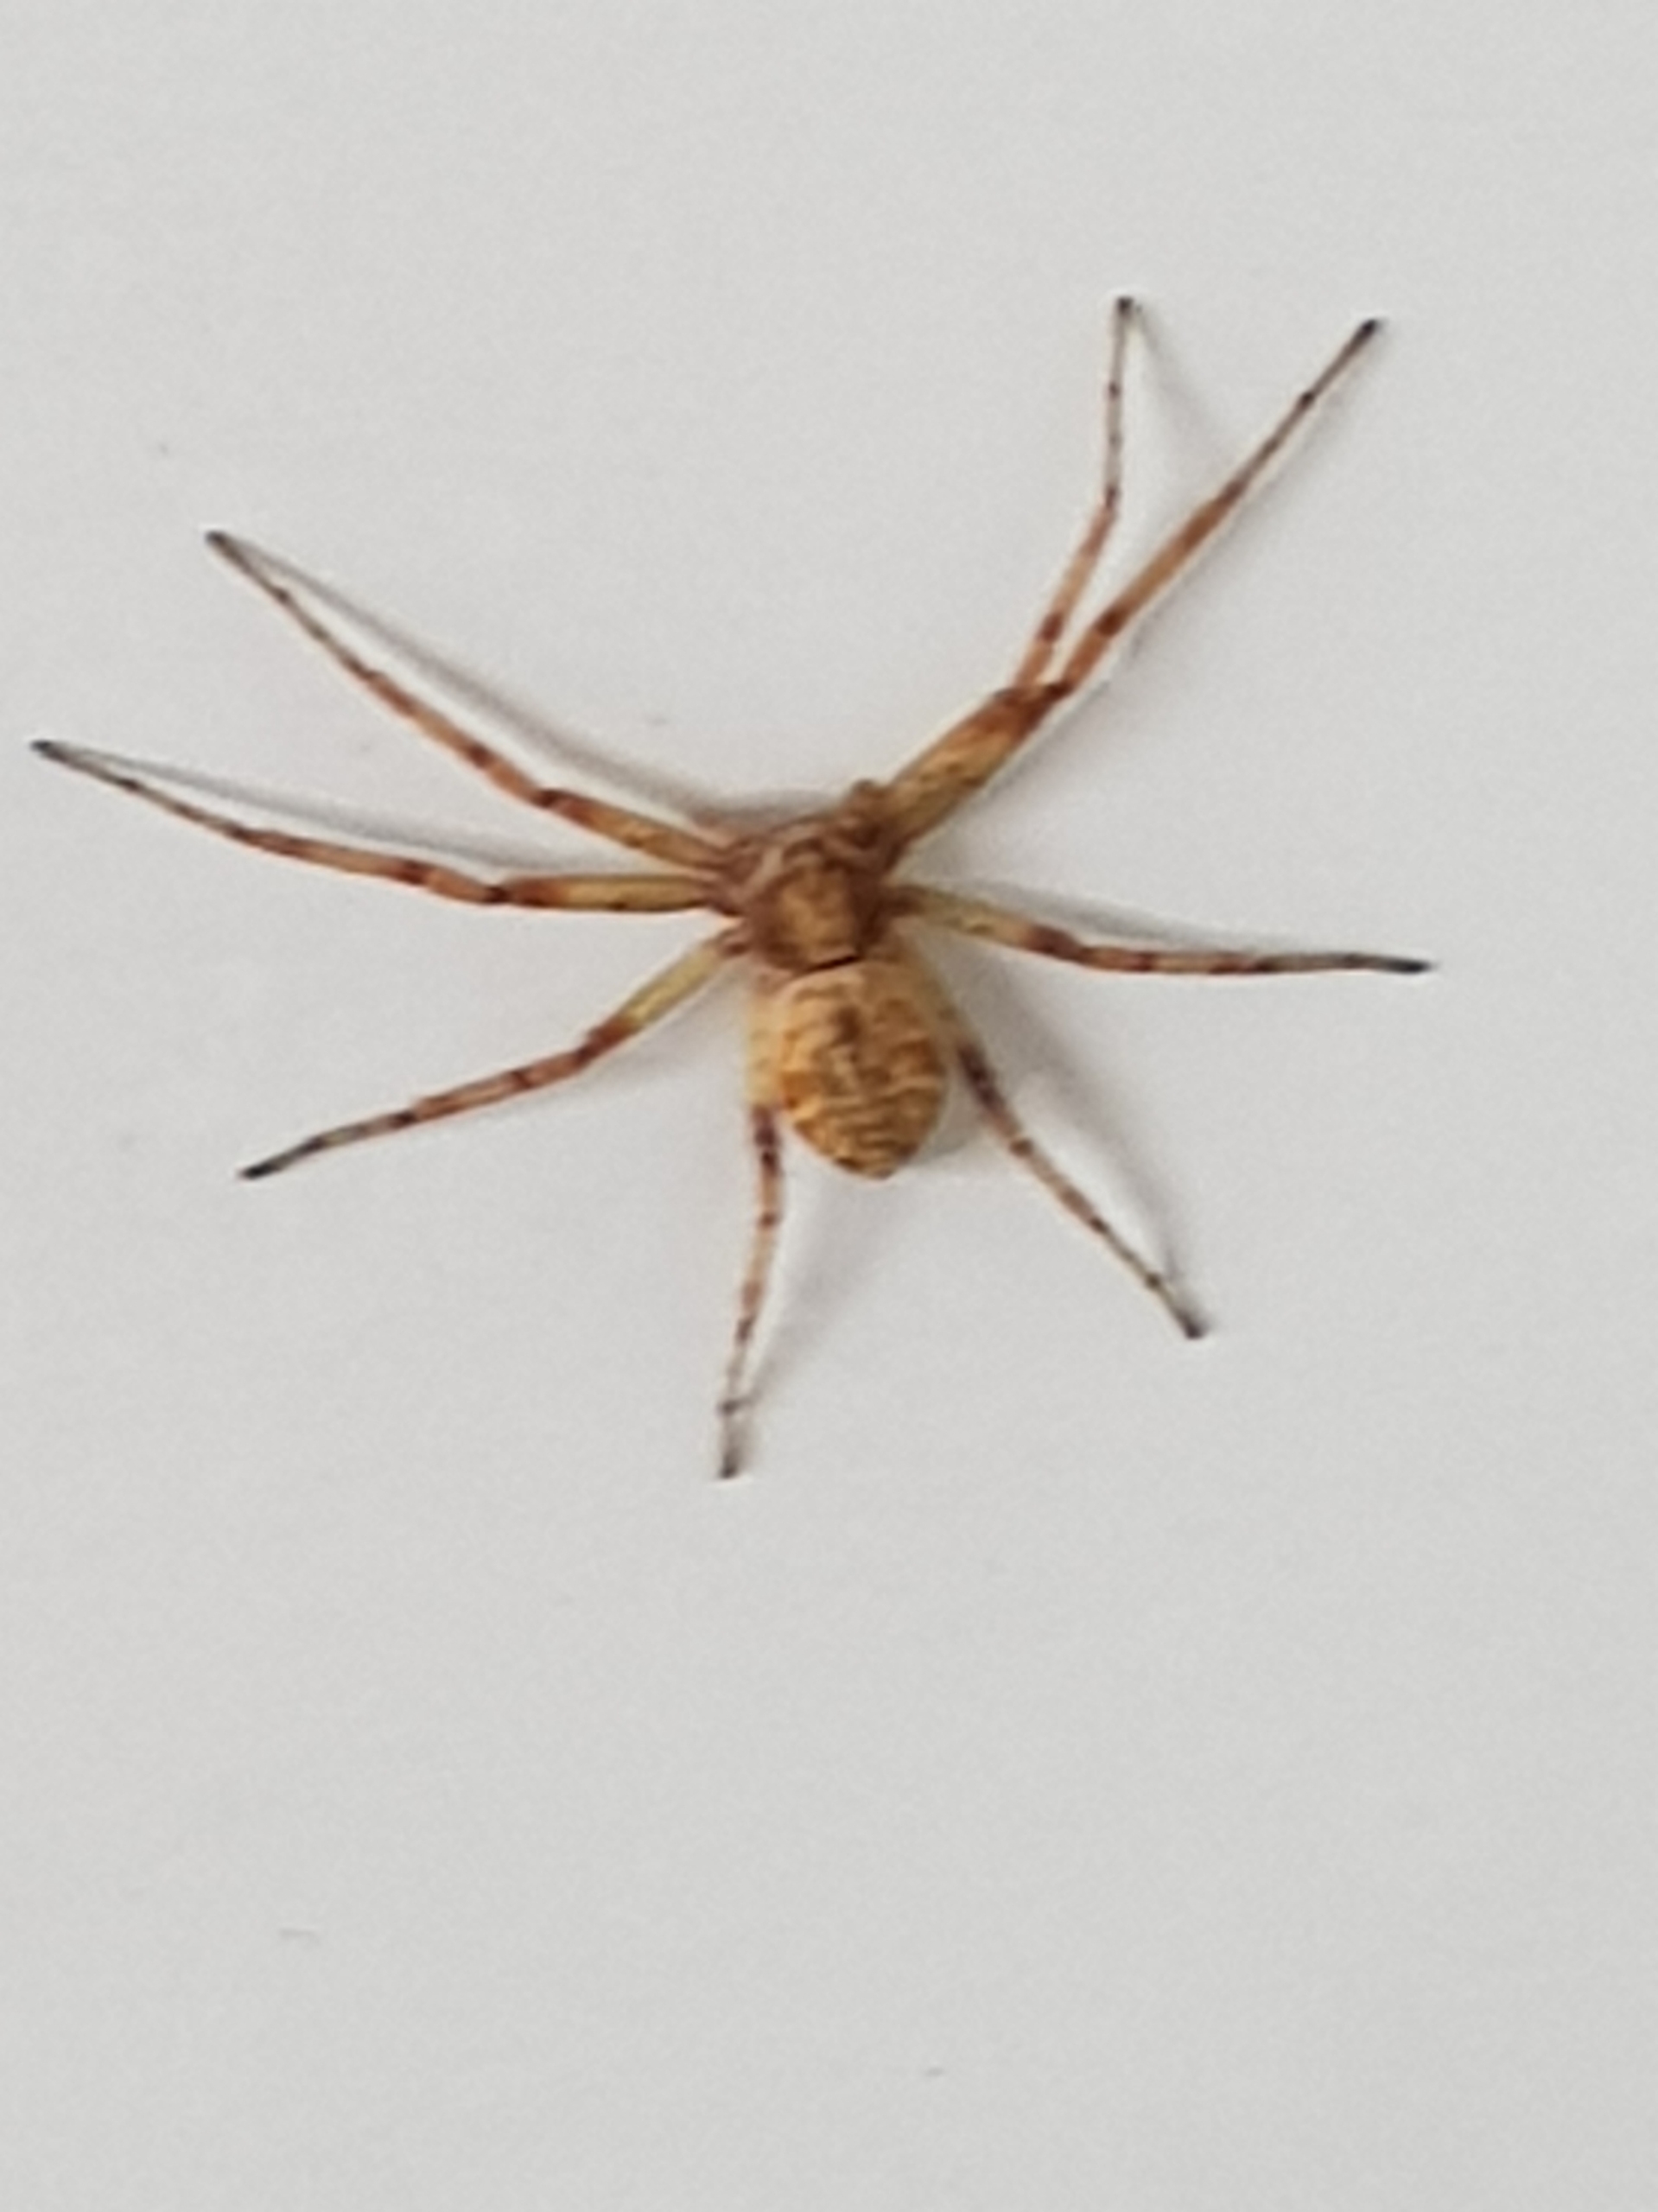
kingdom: Animalia
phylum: Arthropoda
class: Arachnida
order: Araneae
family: Philodromidae
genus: Philodromus
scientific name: Philodromus
